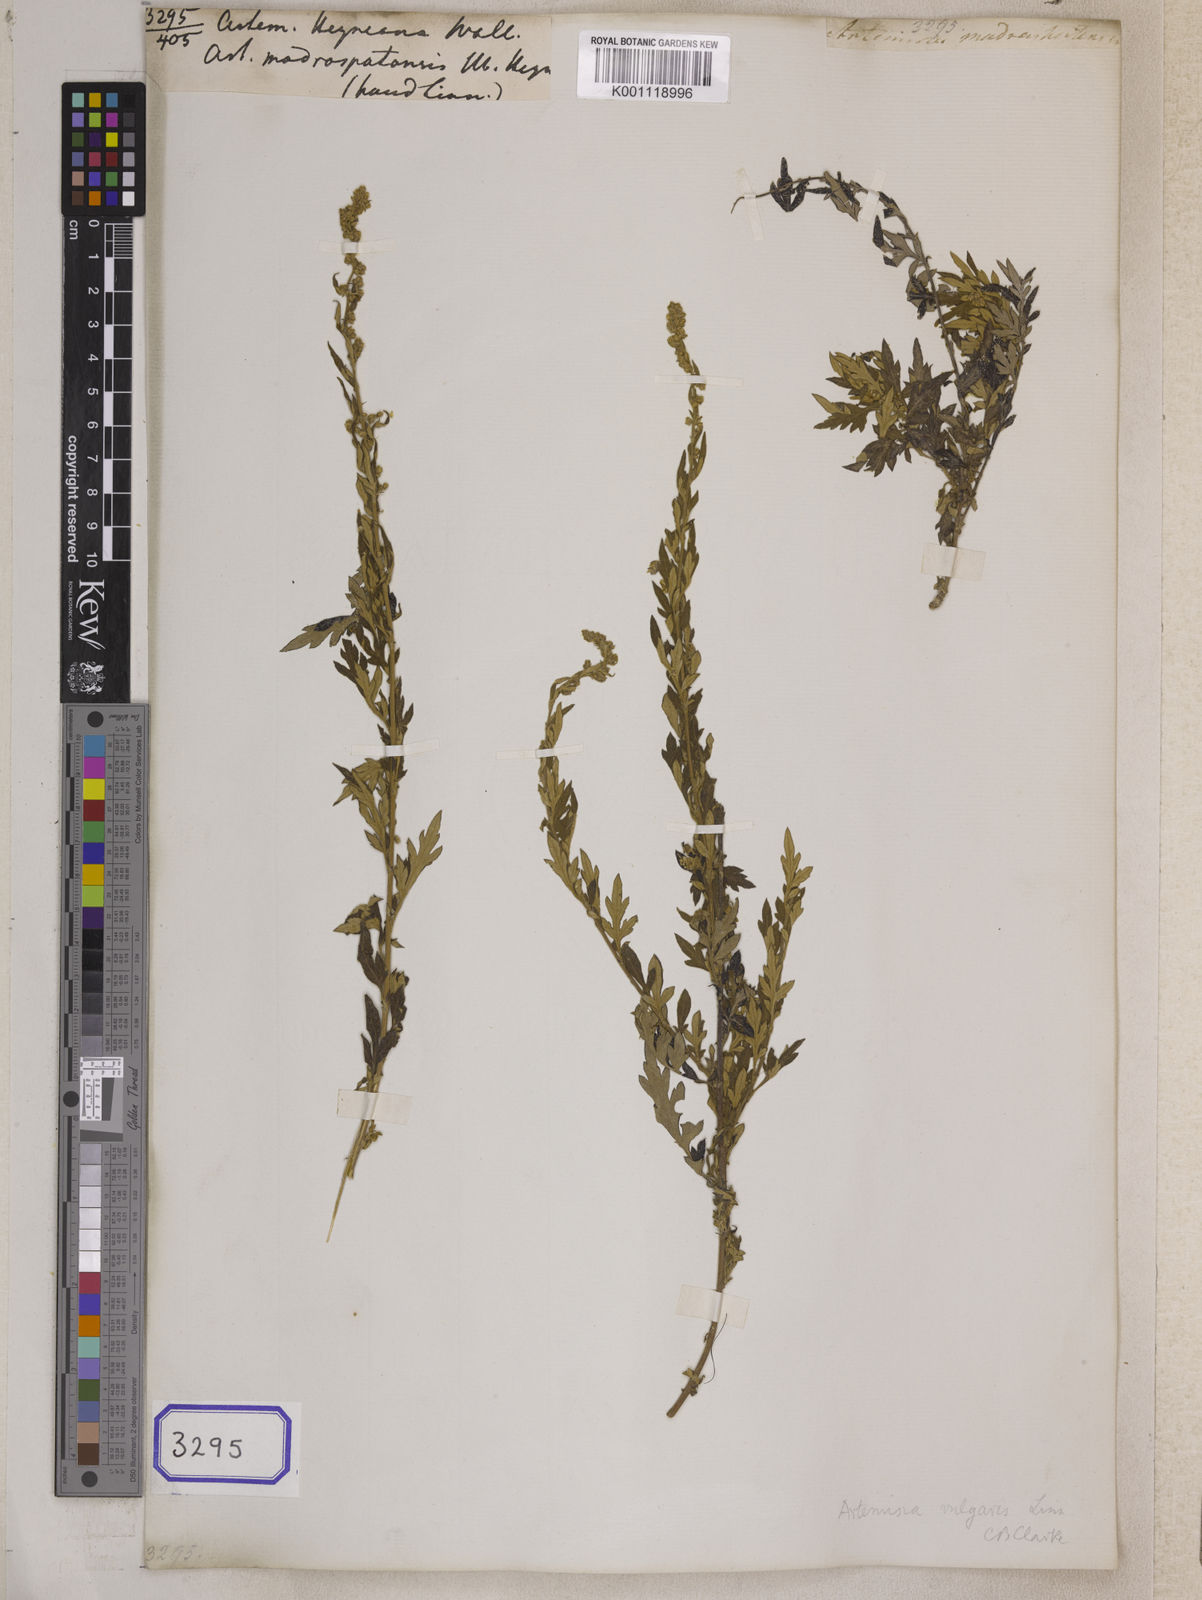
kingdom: Plantae
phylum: Tracheophyta
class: Magnoliopsida
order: Asterales
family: Asteraceae
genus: Artemisia
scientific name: Artemisia vulgaris
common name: Mugwort
